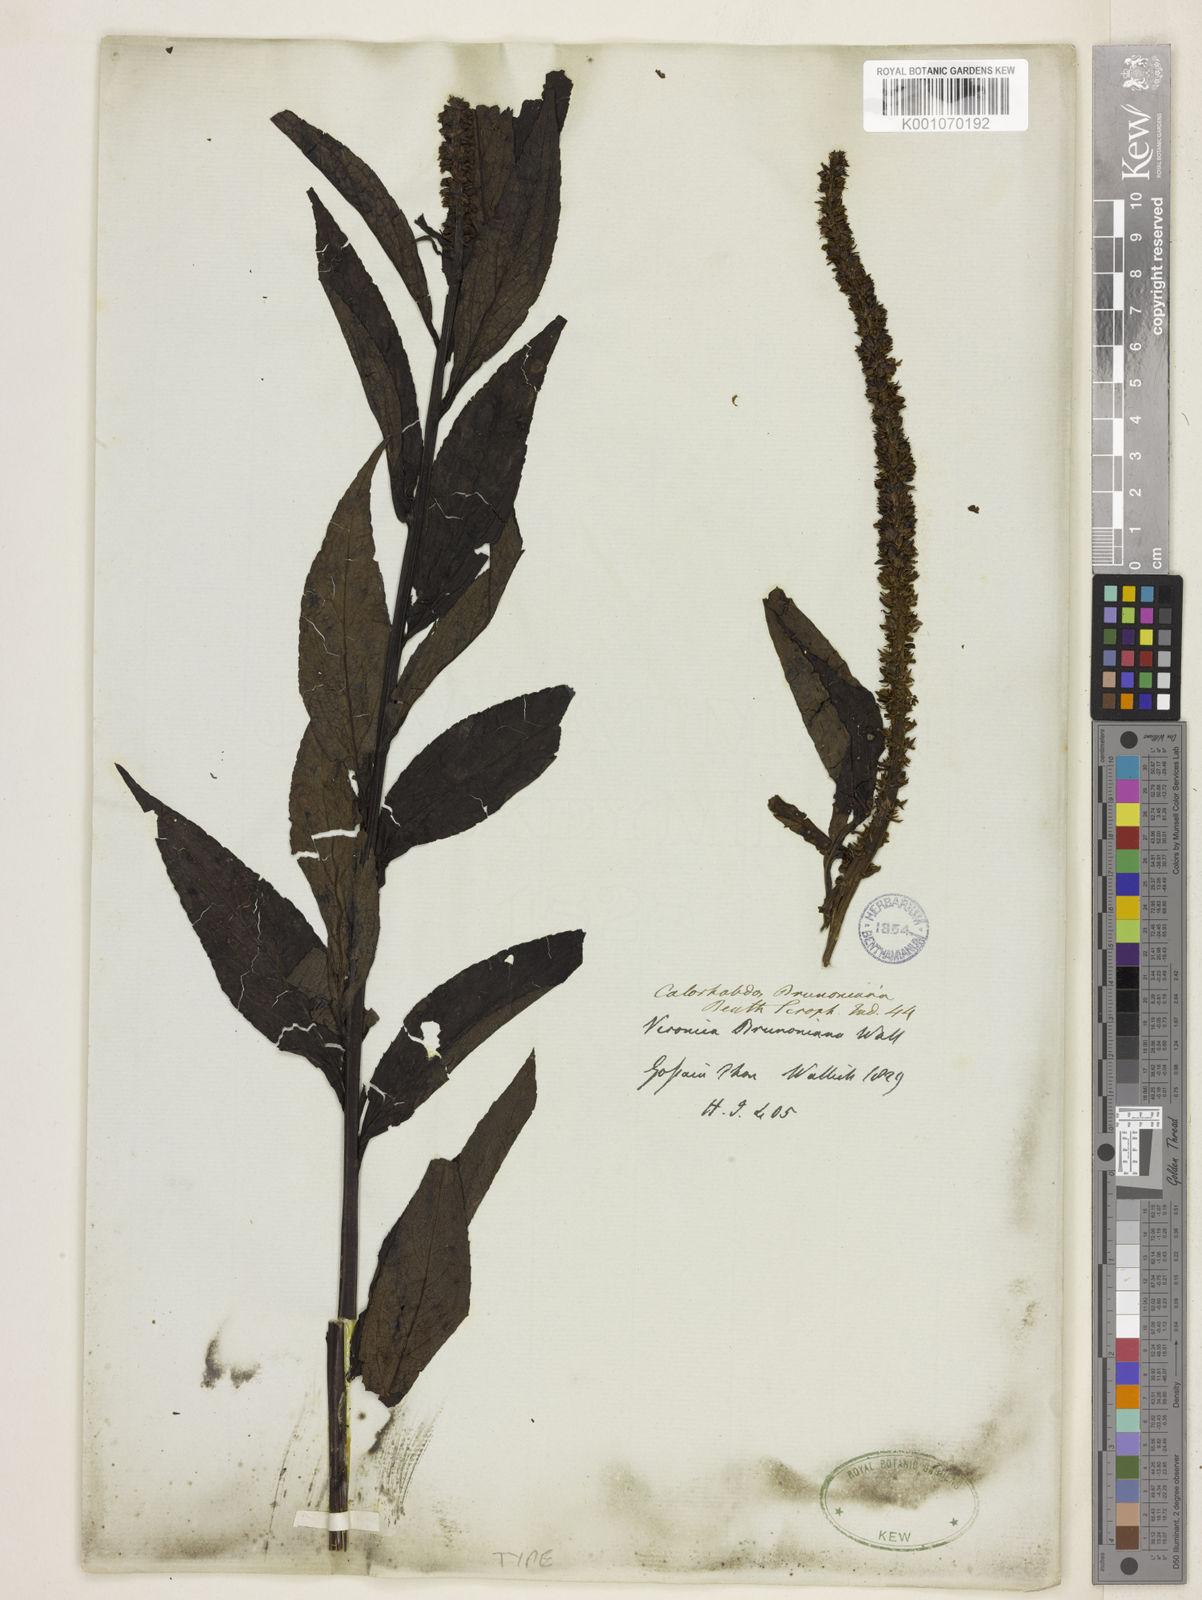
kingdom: Plantae
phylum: Tracheophyta
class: Magnoliopsida
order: Lamiales
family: Plantaginaceae
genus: Veronicastrum
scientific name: Veronicastrum brunonianum
